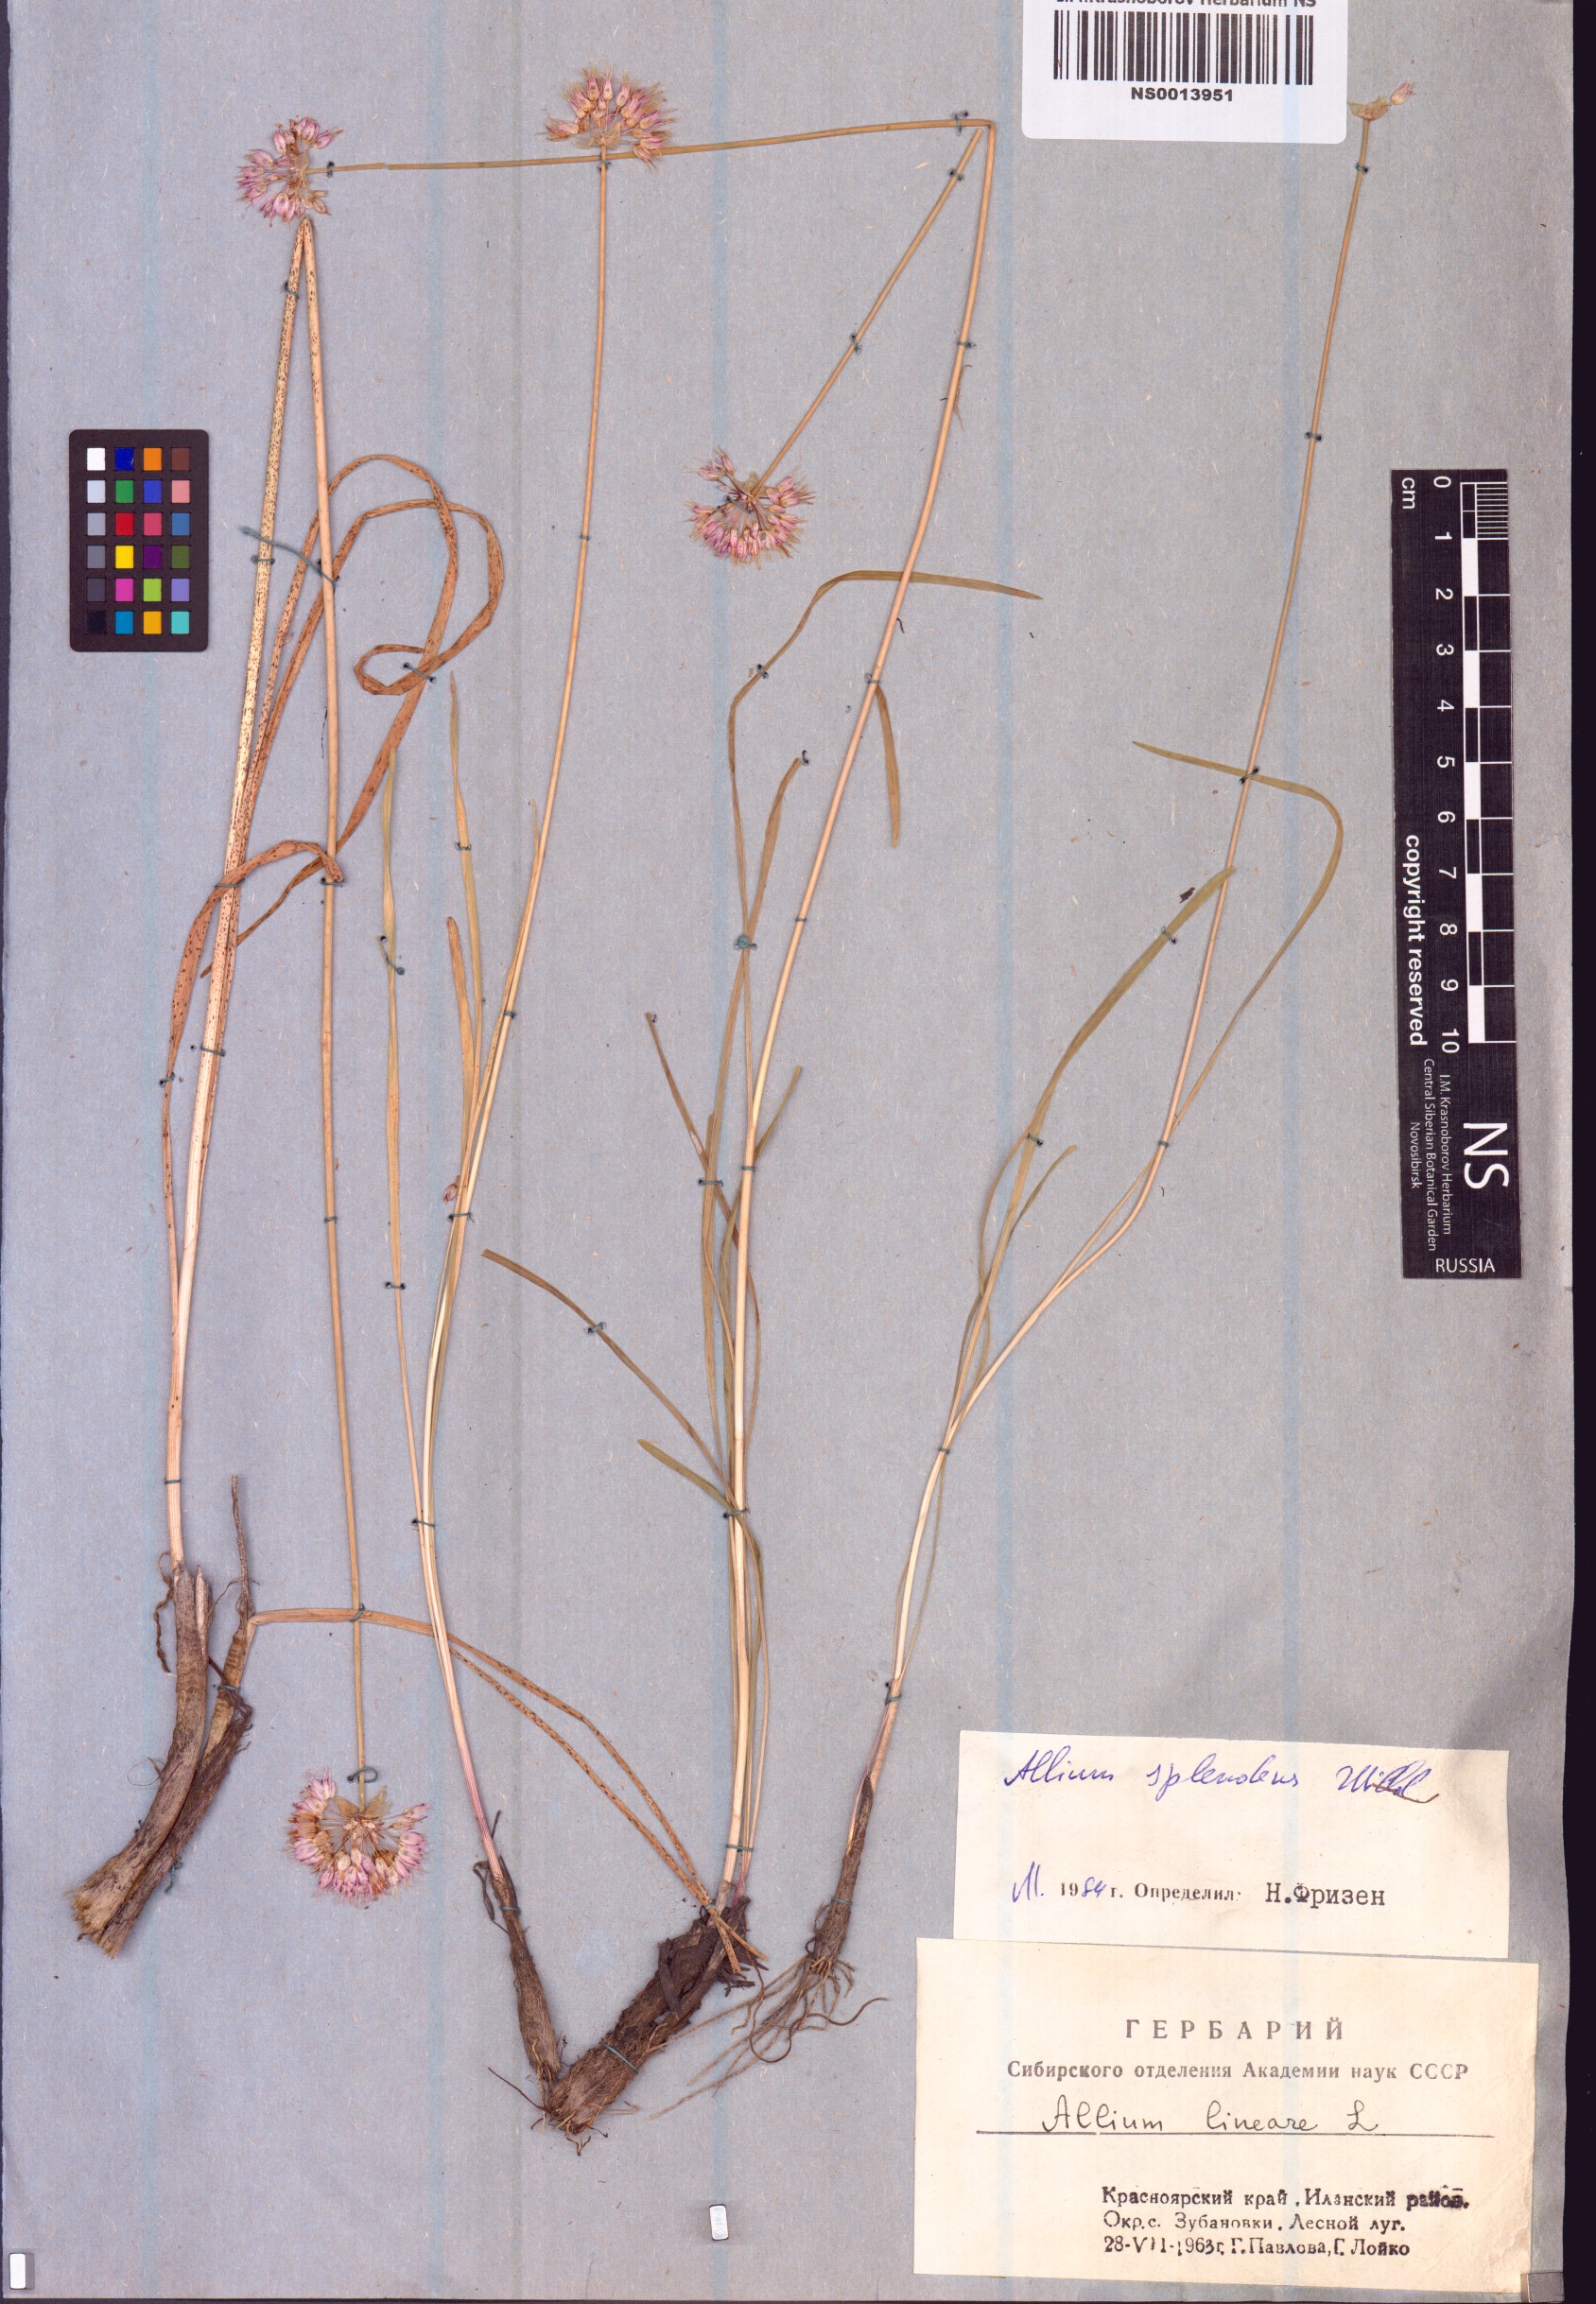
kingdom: Plantae
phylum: Tracheophyta
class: Liliopsida
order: Asparagales
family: Amaryllidaceae
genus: Allium
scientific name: Allium splendens
